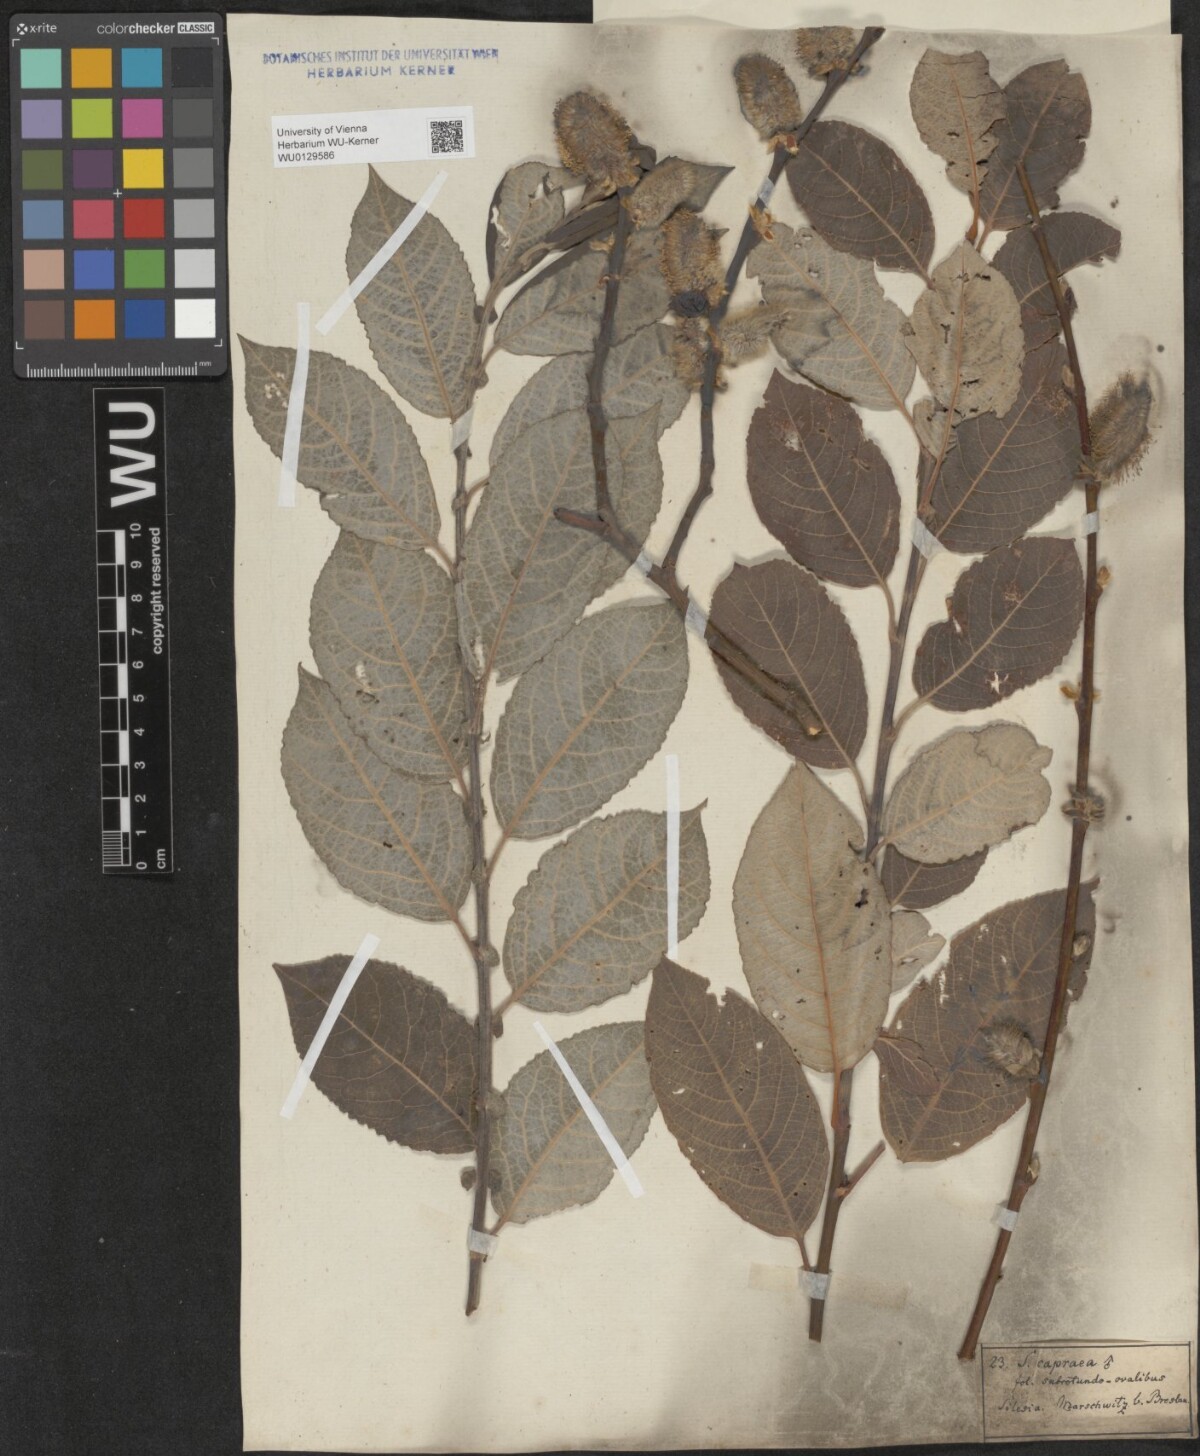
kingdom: Plantae
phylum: Tracheophyta
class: Magnoliopsida
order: Malpighiales
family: Salicaceae
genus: Salix
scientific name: Salix caprea
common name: Goat willow
